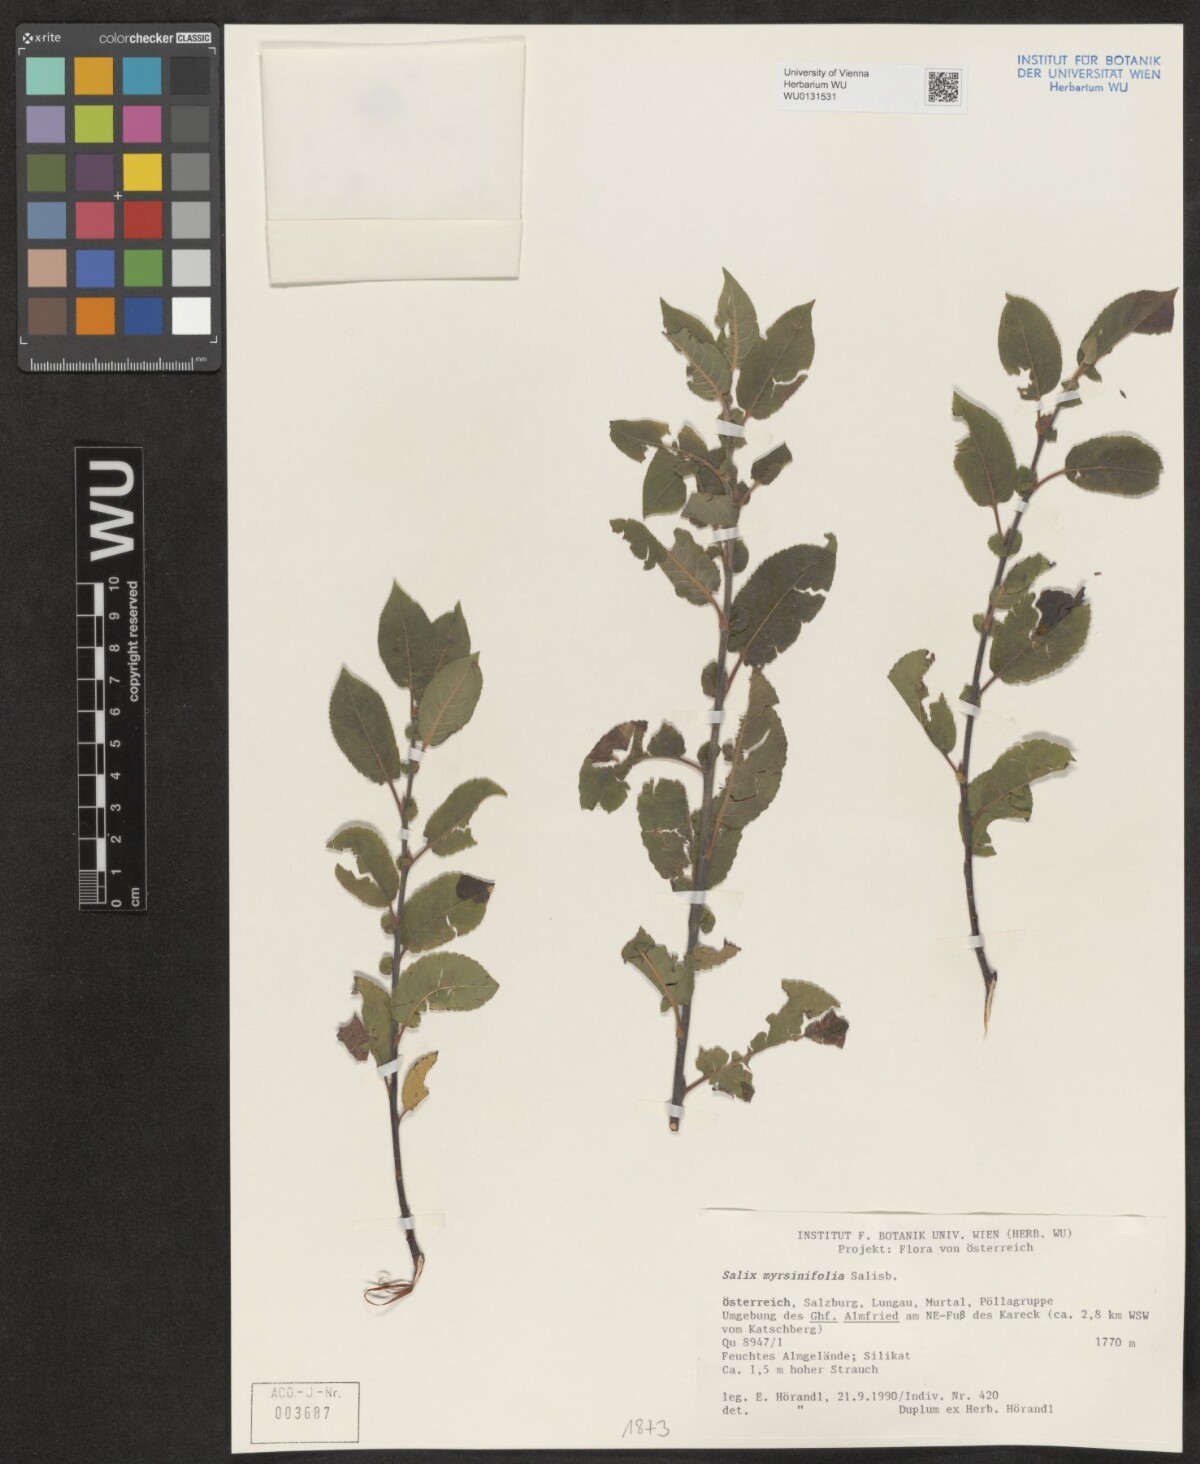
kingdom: Plantae
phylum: Tracheophyta
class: Magnoliopsida
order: Malpighiales
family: Salicaceae
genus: Salix
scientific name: Salix myrsinifolia
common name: Dark-leaved willow
